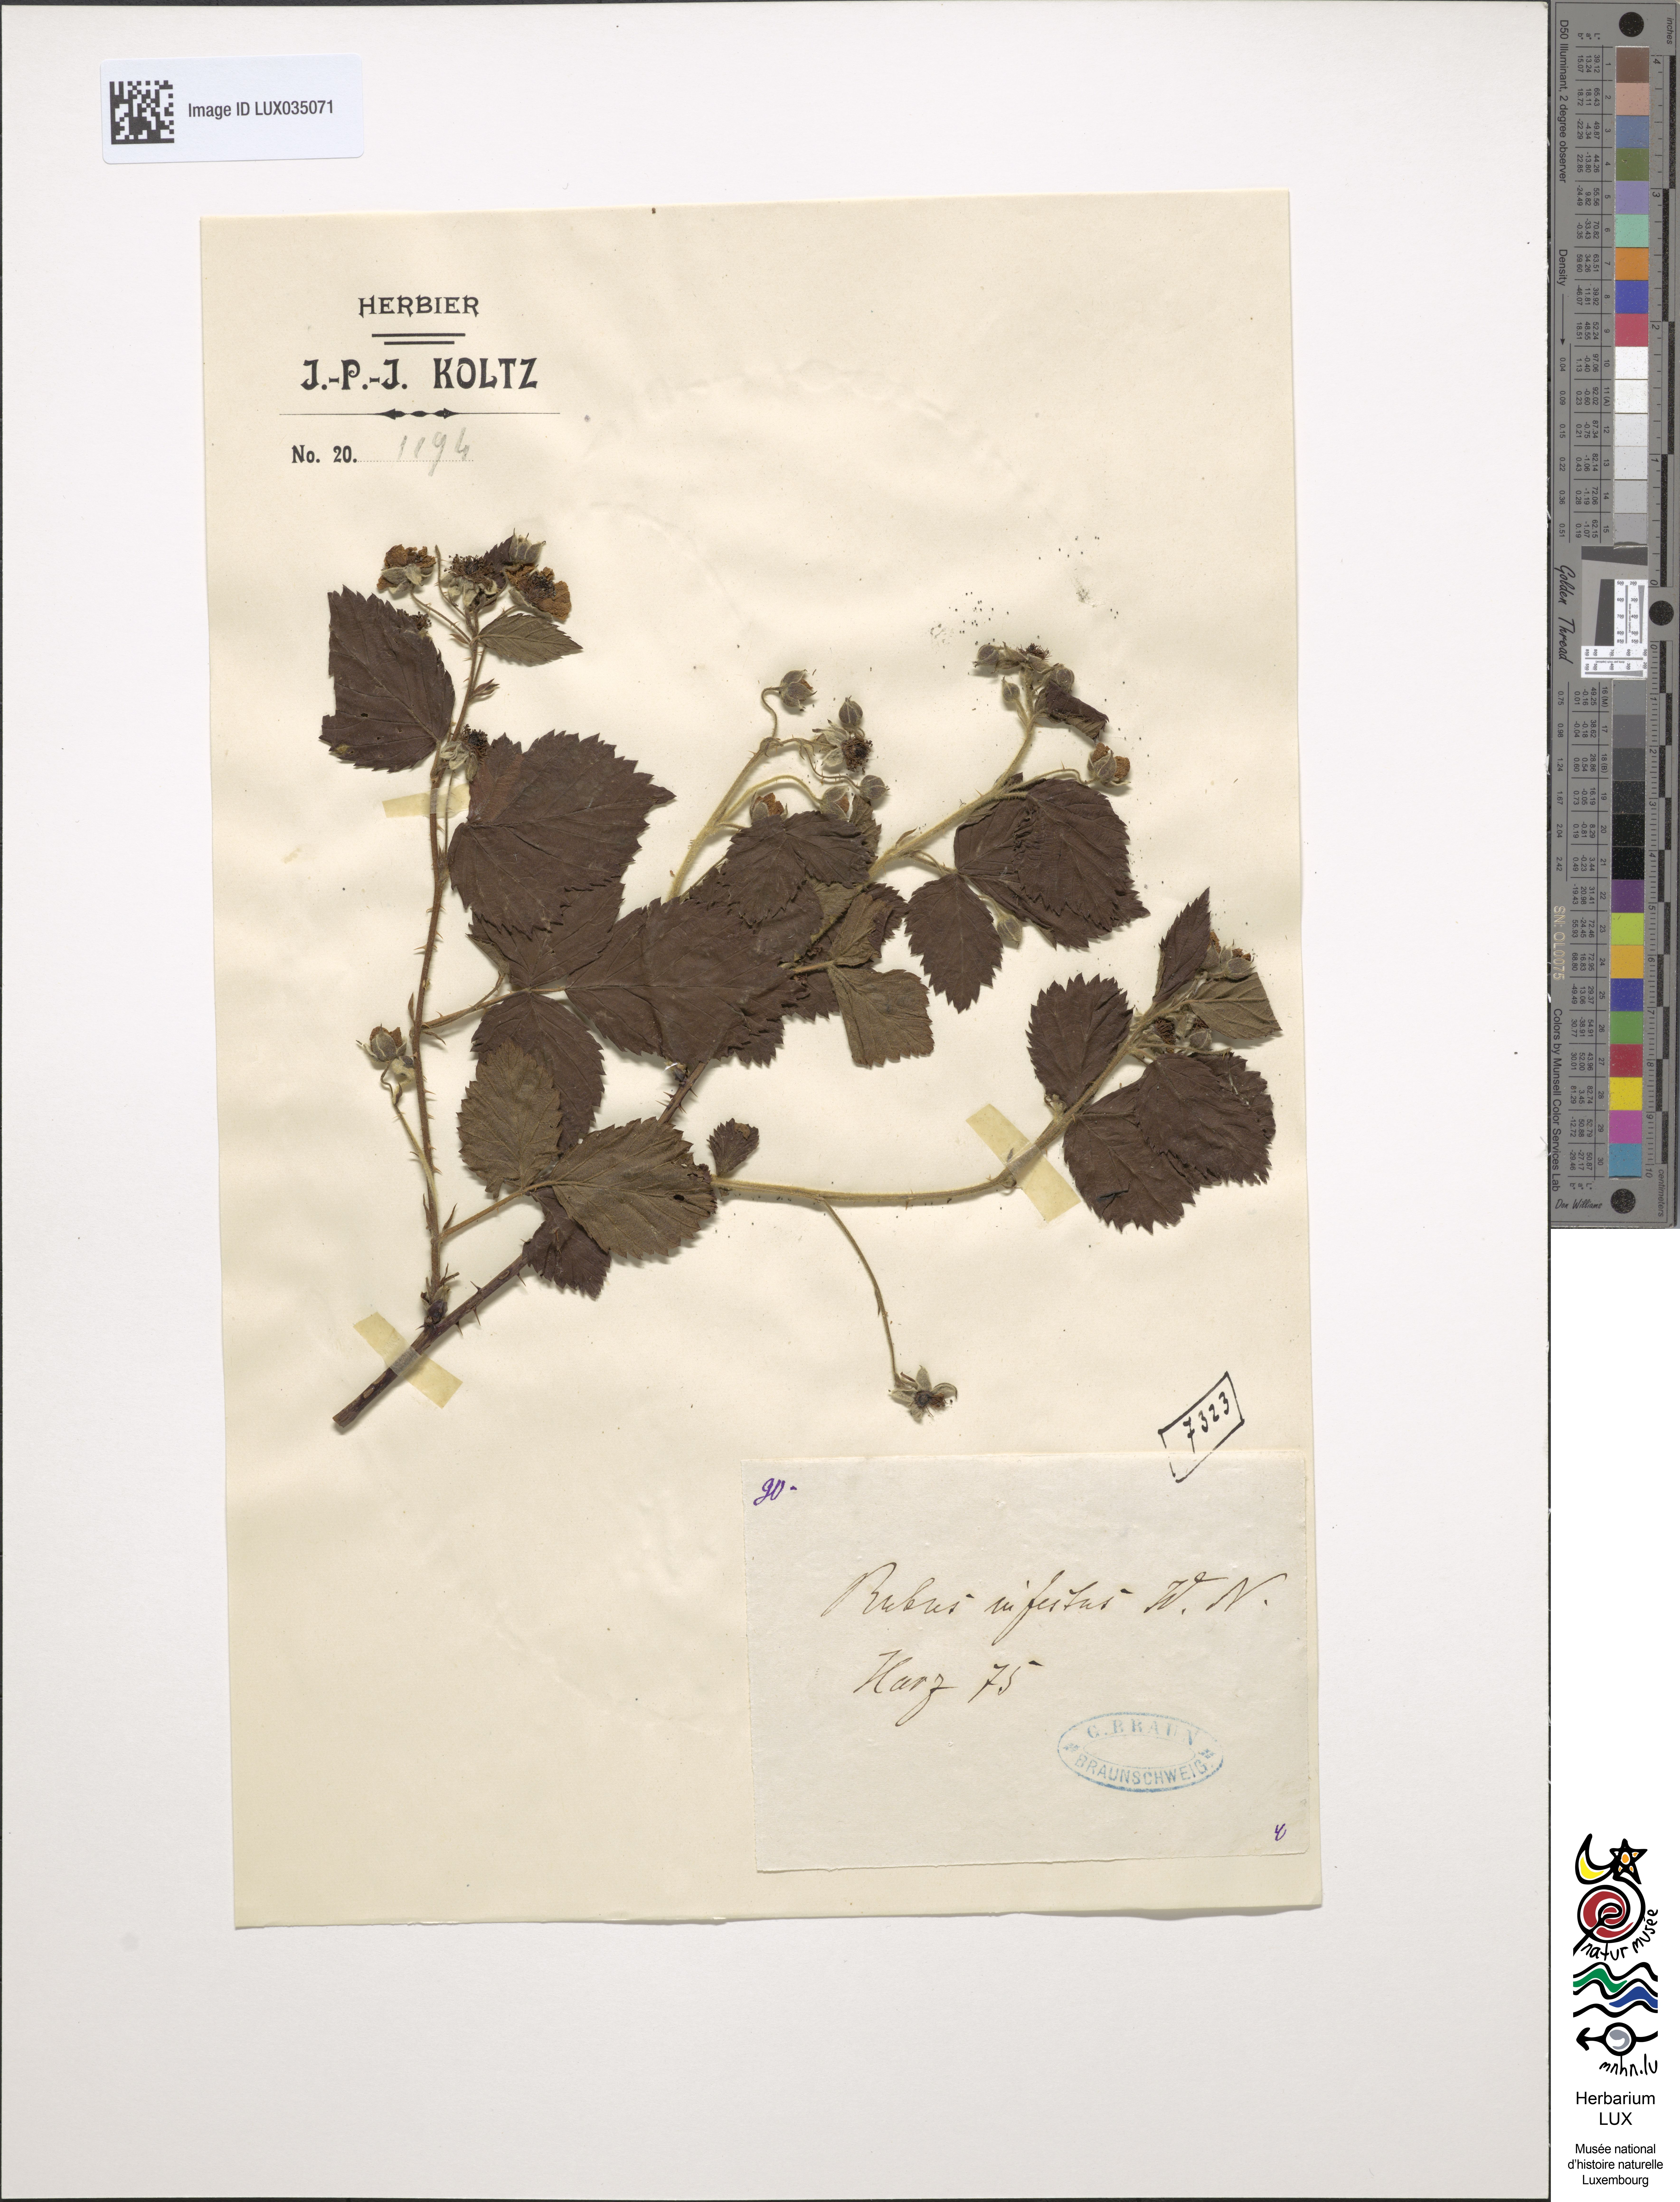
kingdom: Plantae
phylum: Tracheophyta
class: Magnoliopsida
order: Rosales
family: Rosaceae
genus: Rubus
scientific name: Rubus infestus
